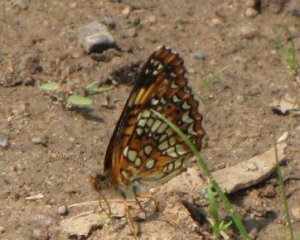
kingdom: Animalia
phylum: Arthropoda
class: Insecta
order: Lepidoptera
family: Nymphalidae
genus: Chlosyne
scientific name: Chlosyne harrisii
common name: Harris's Checkerspot
